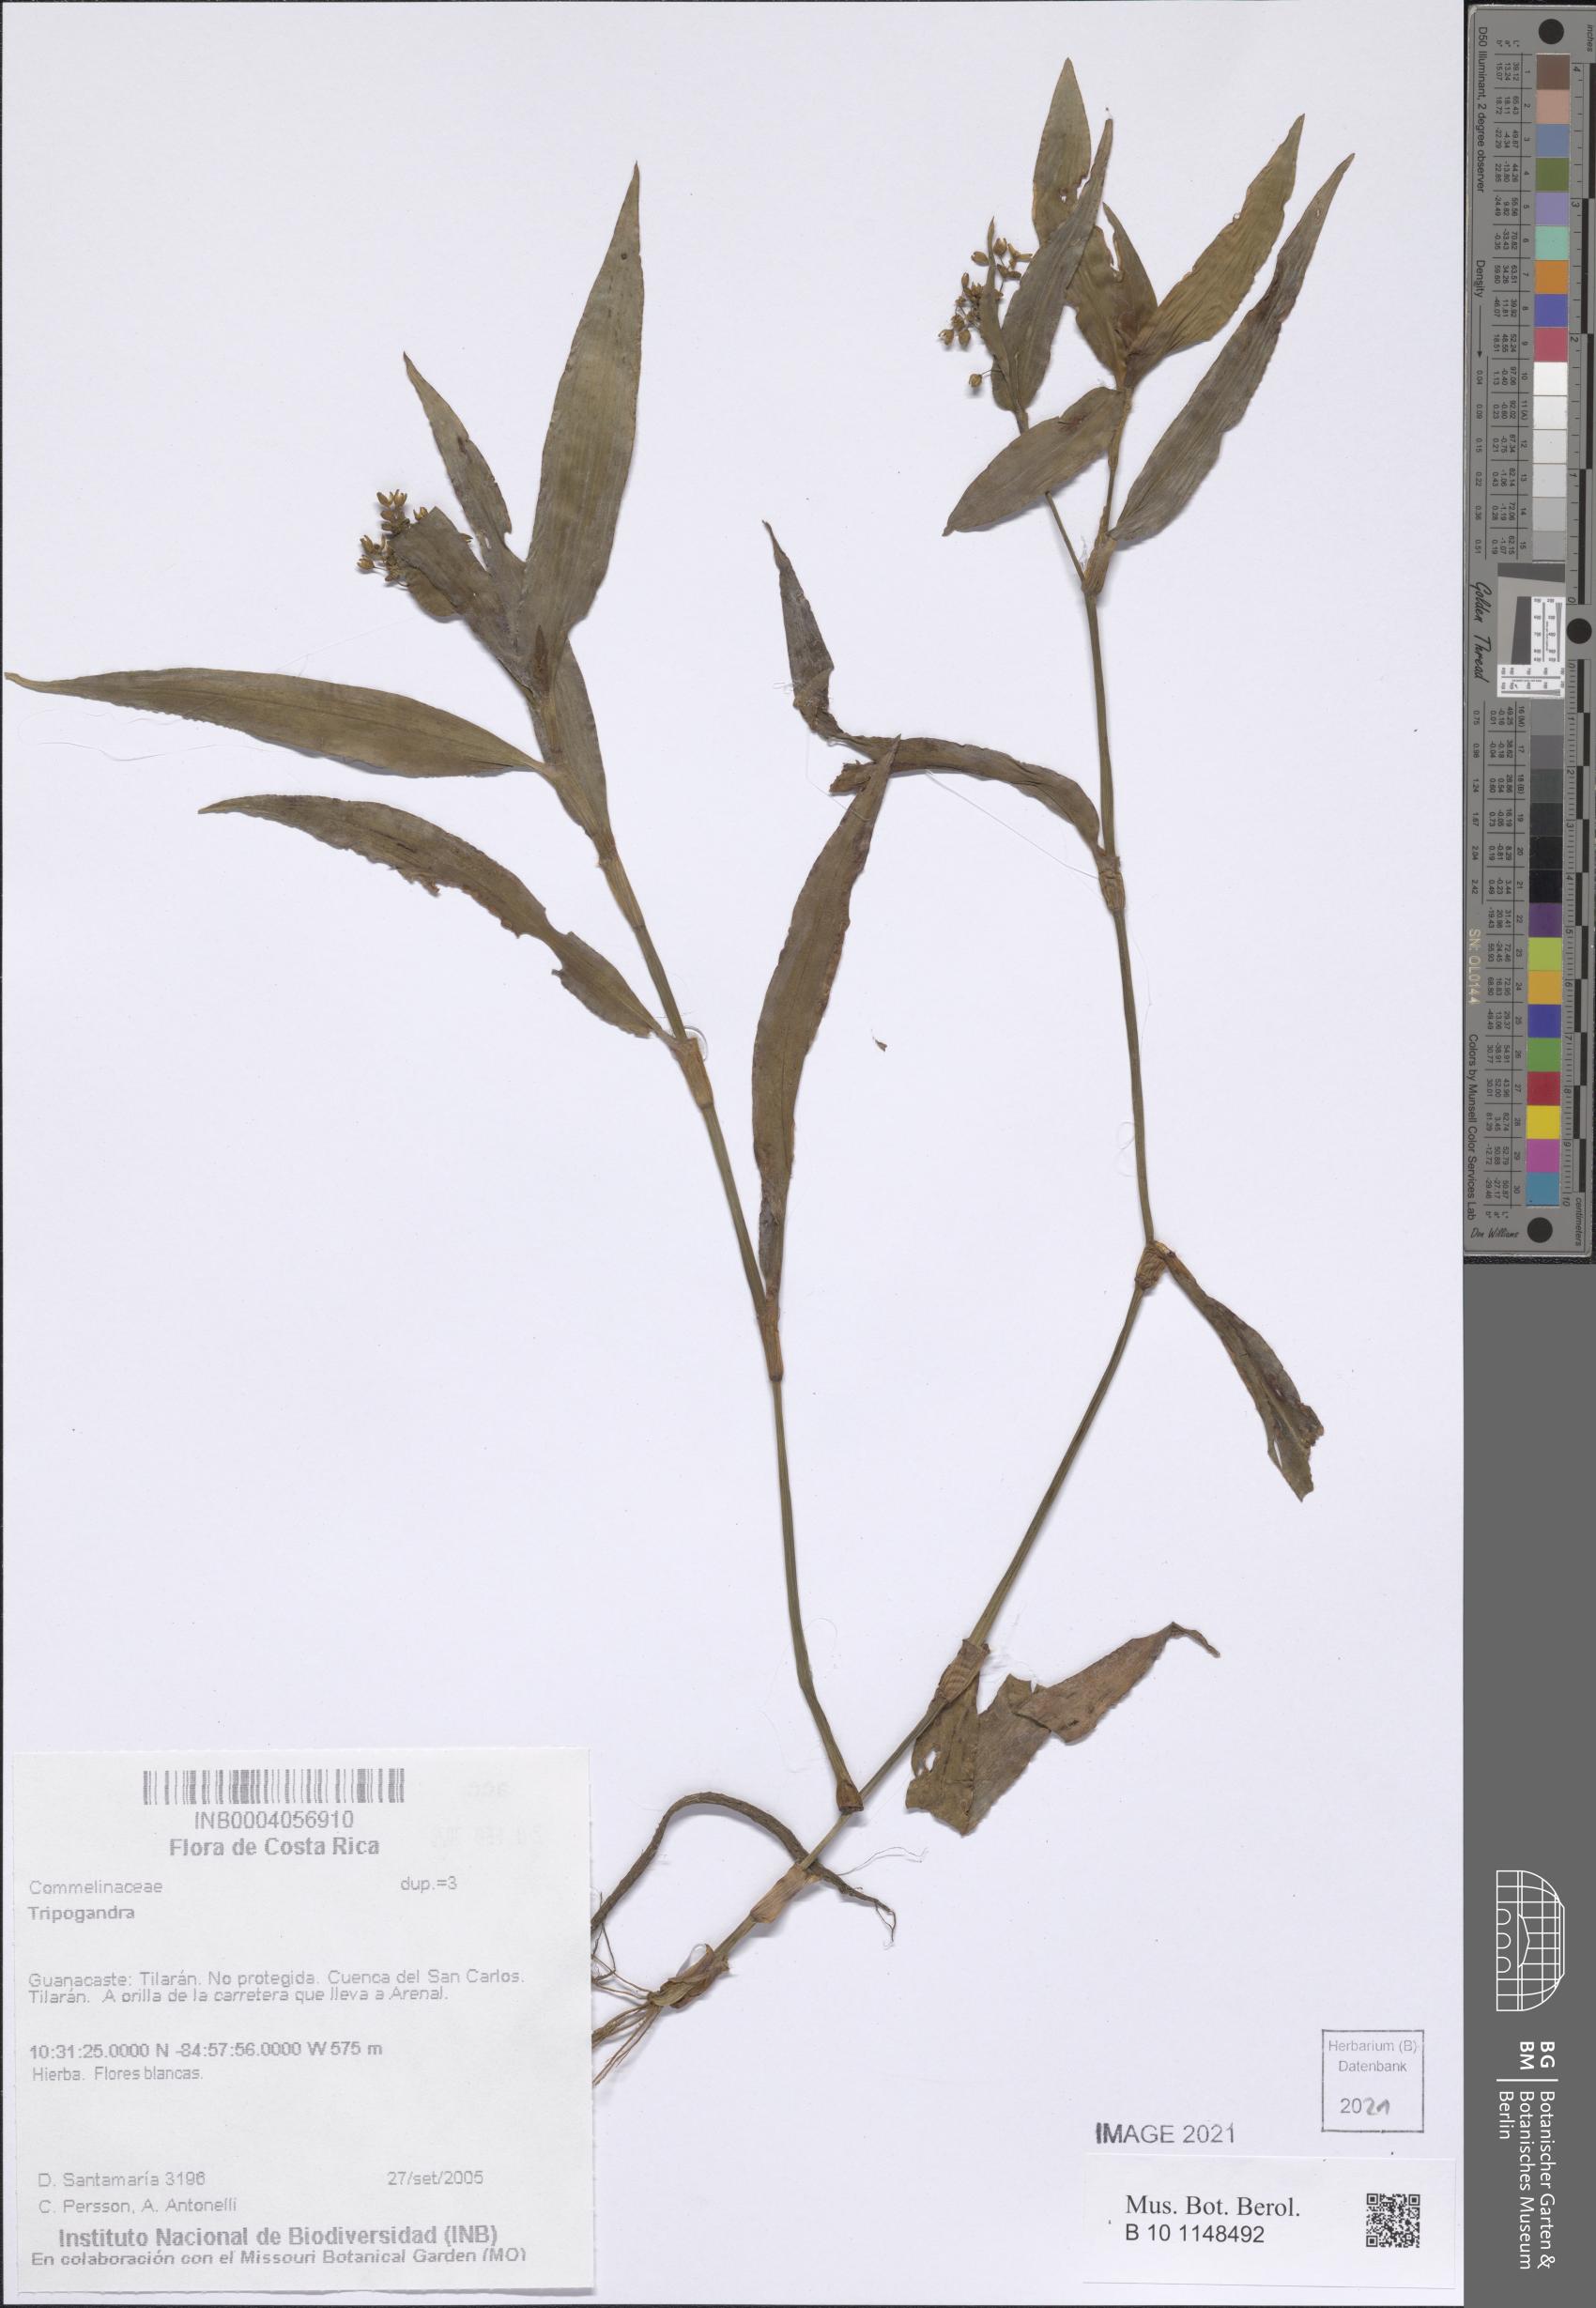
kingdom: Plantae
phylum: Tracheophyta
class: Liliopsida
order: Commelinales
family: Commelinaceae
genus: Callisia
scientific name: Callisia
